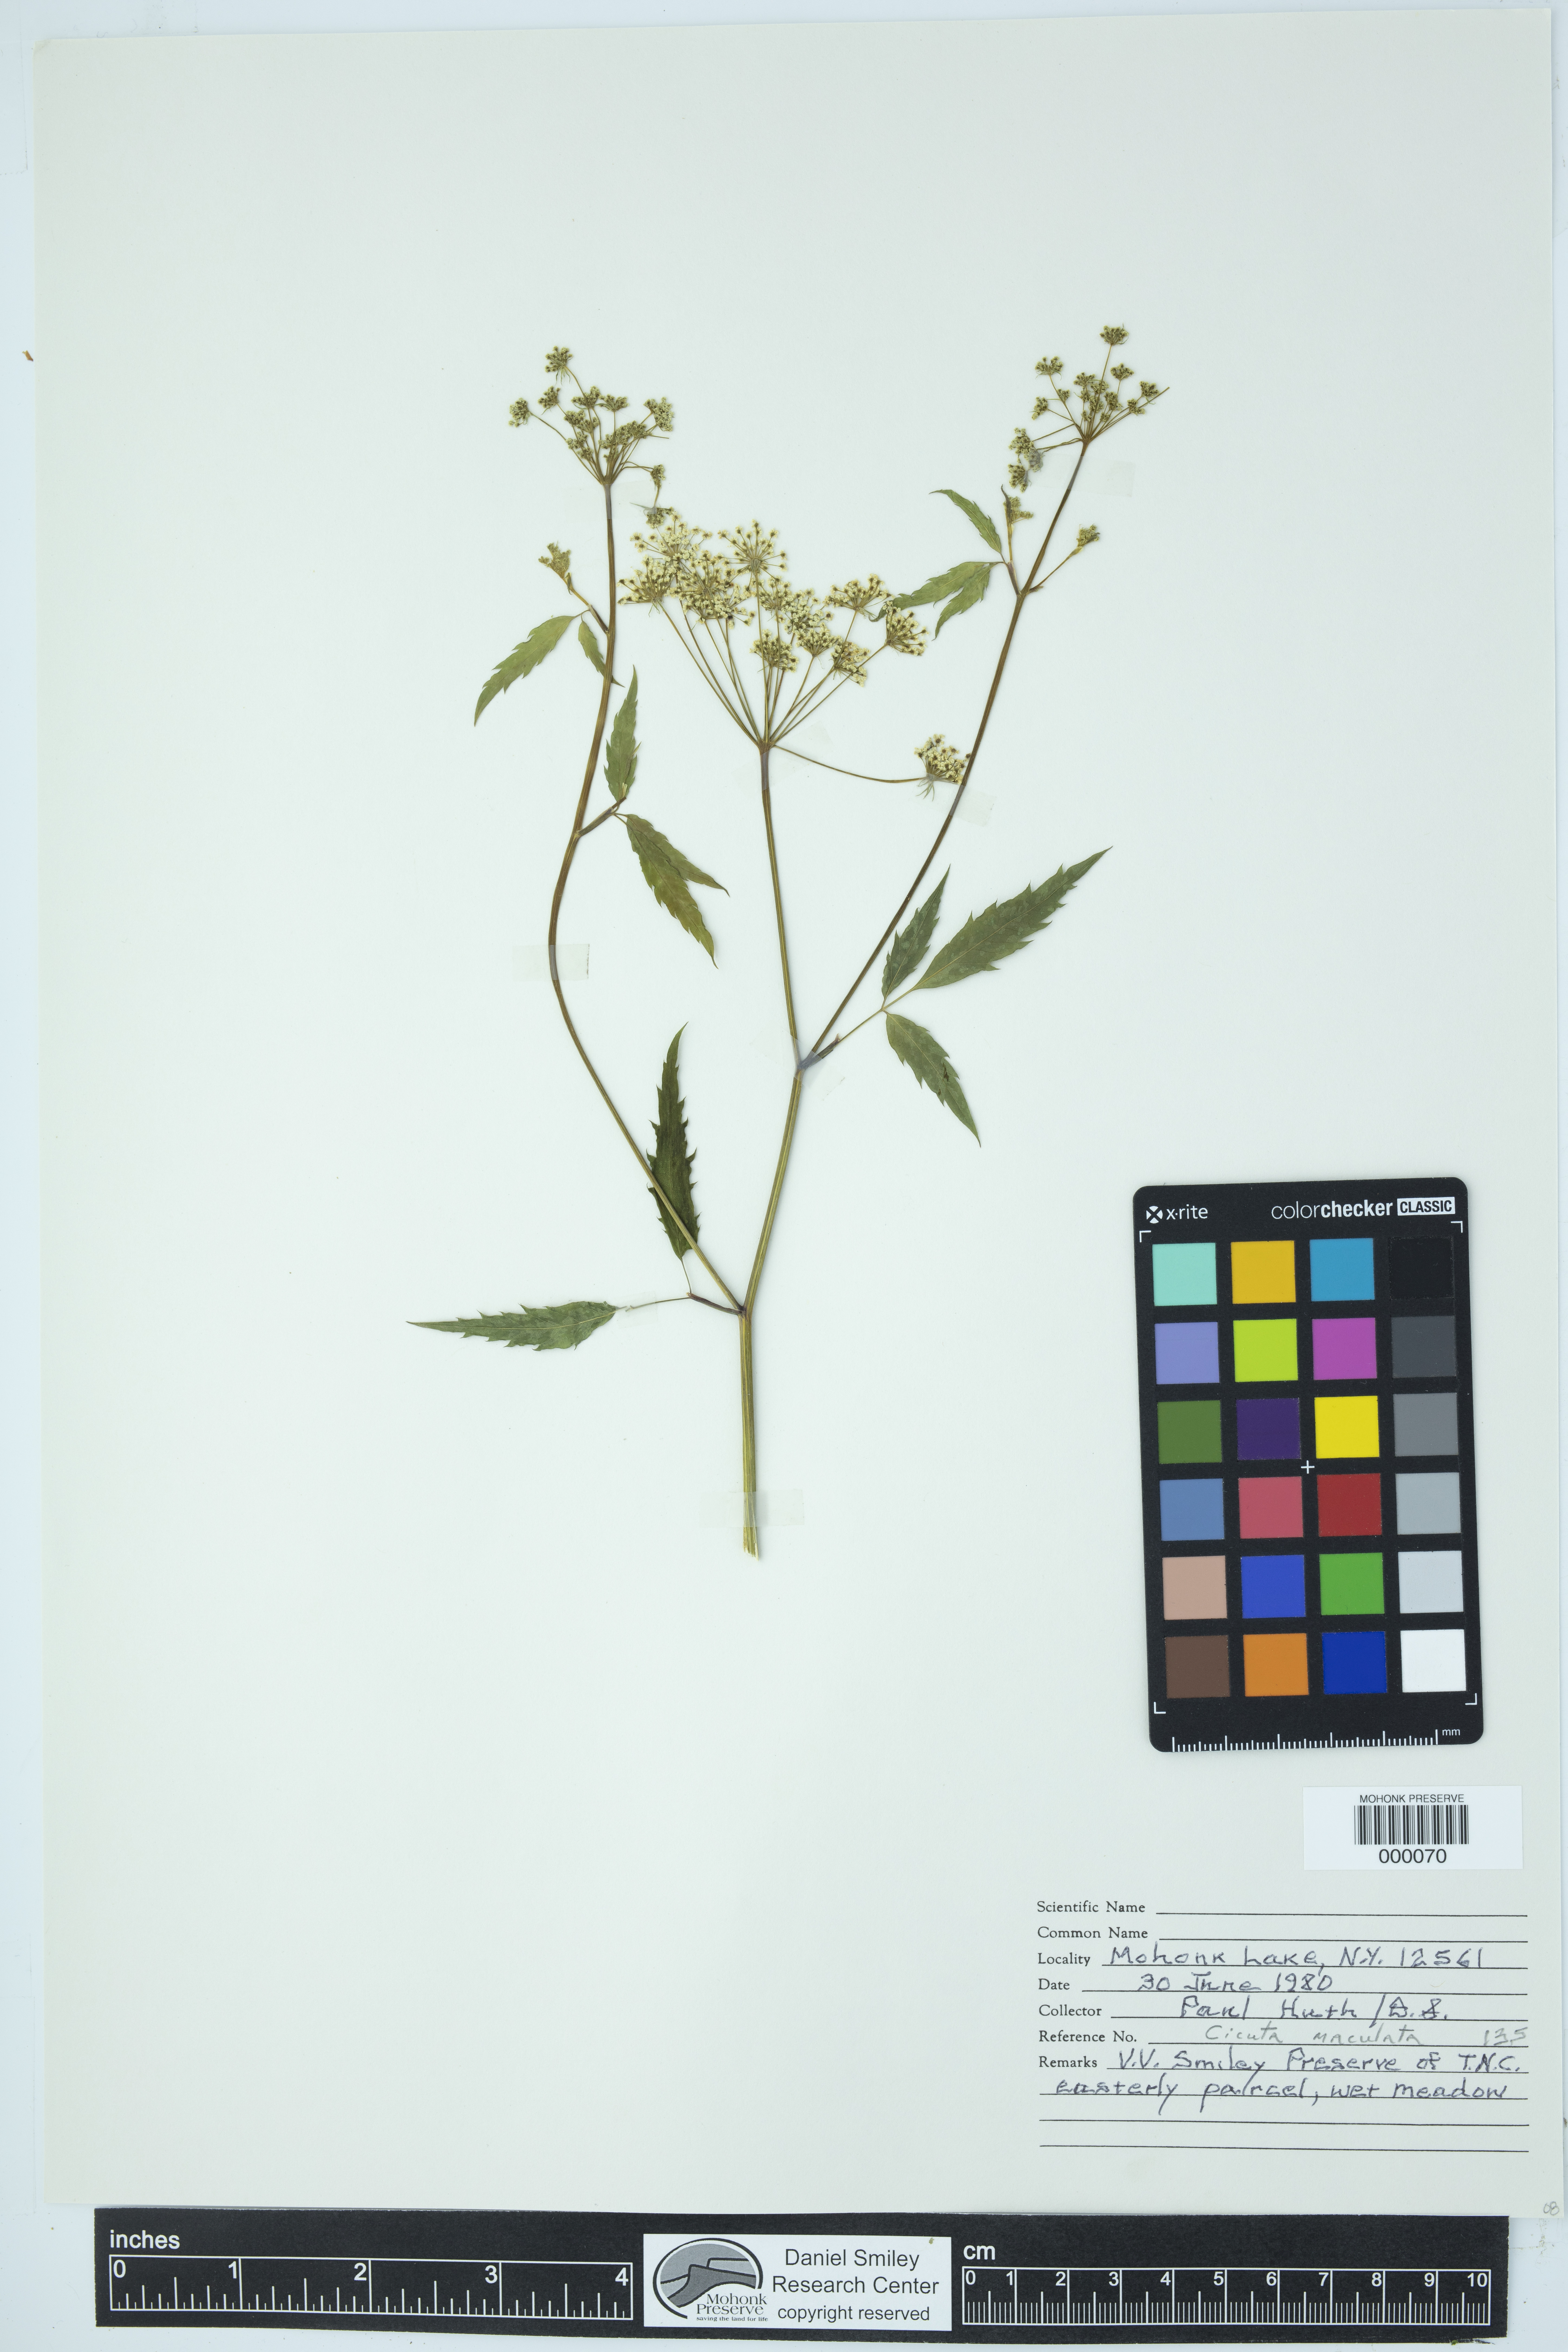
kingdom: Plantae
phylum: Tracheophyta
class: Magnoliopsida
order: Apiales
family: Apiaceae
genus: Cicuta
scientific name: Cicuta maculata
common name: Spotted cowbane
